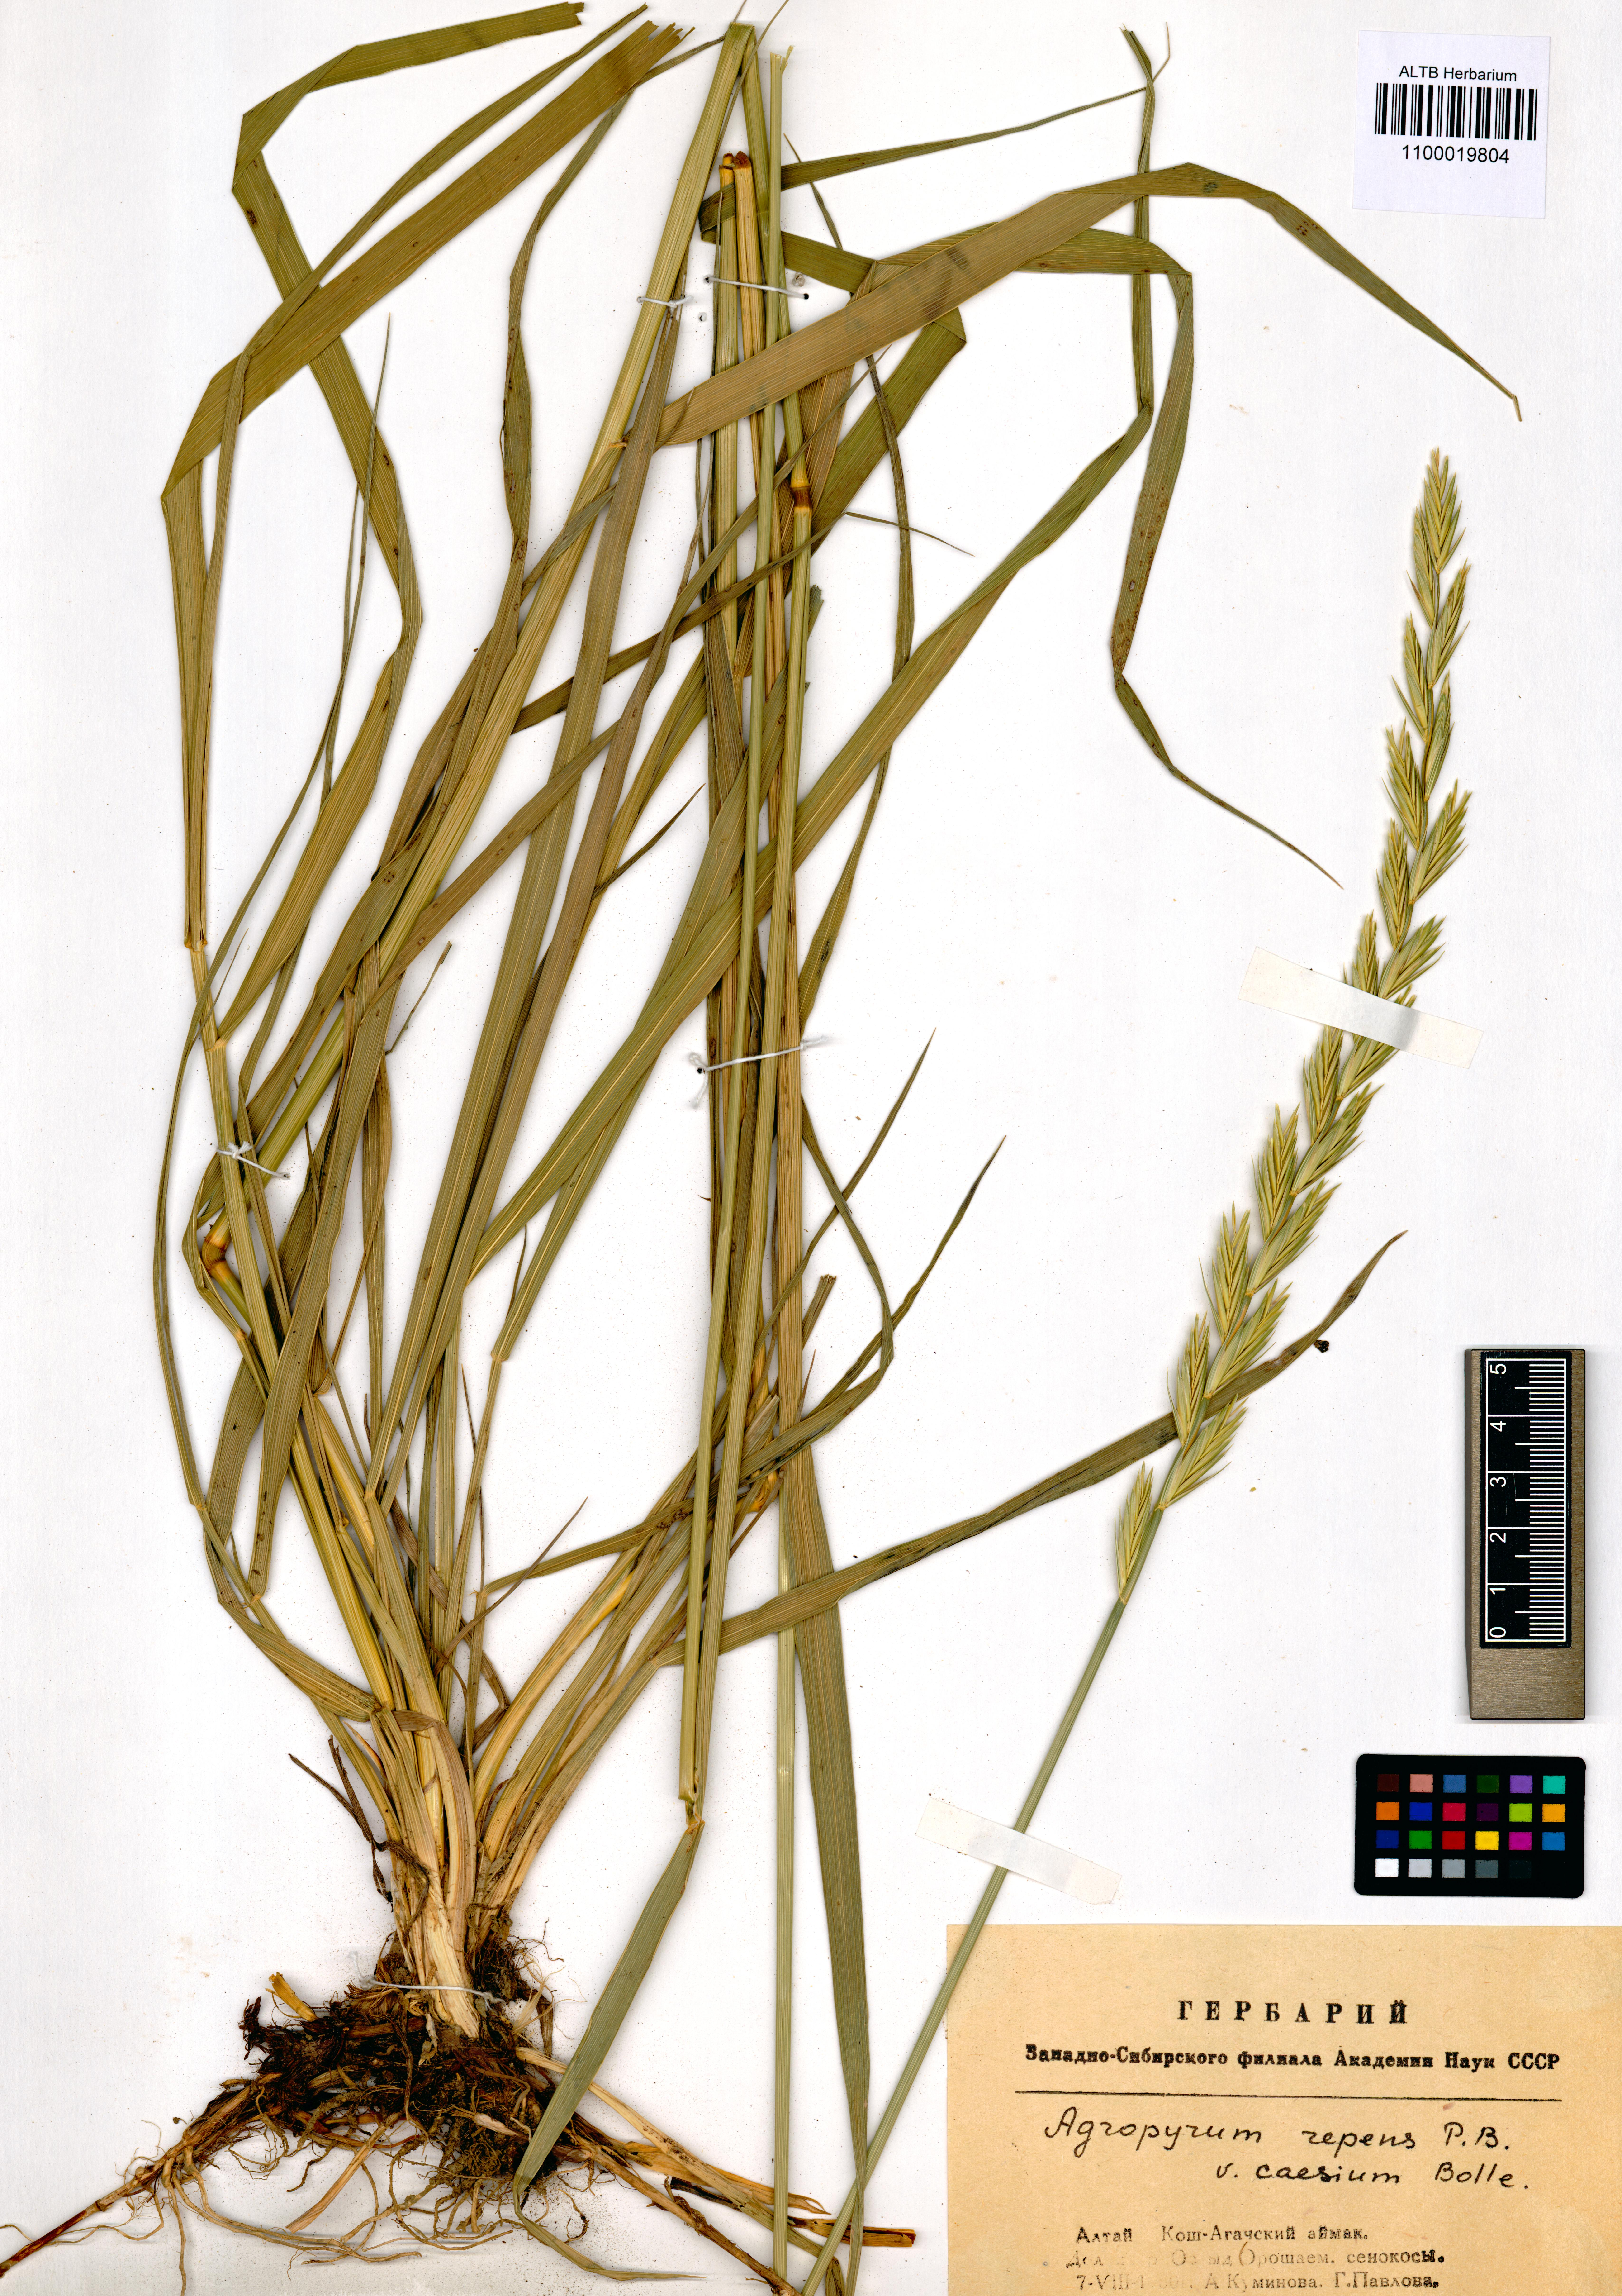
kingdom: Plantae
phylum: Tracheophyta
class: Liliopsida
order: Poales
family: Poaceae
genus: Elymus
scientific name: Elymus repens
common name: Quackgrass
